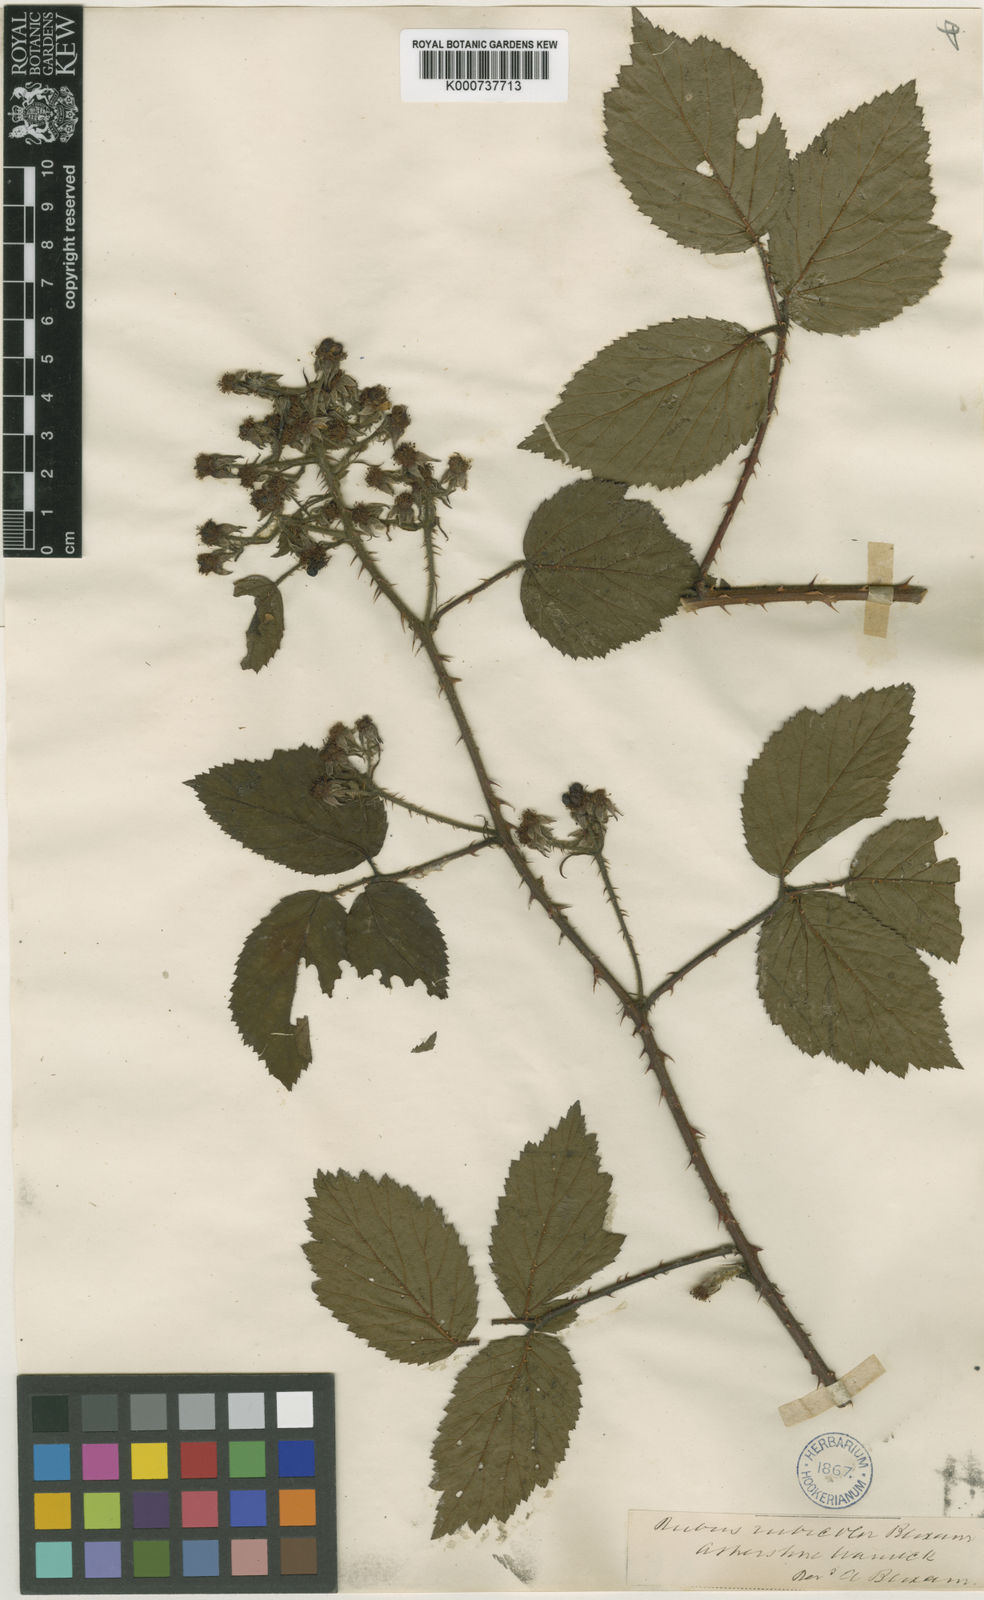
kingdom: Plantae
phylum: Tracheophyta
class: Magnoliopsida
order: Rosales
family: Rosaceae
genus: Rubus
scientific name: Rubus
